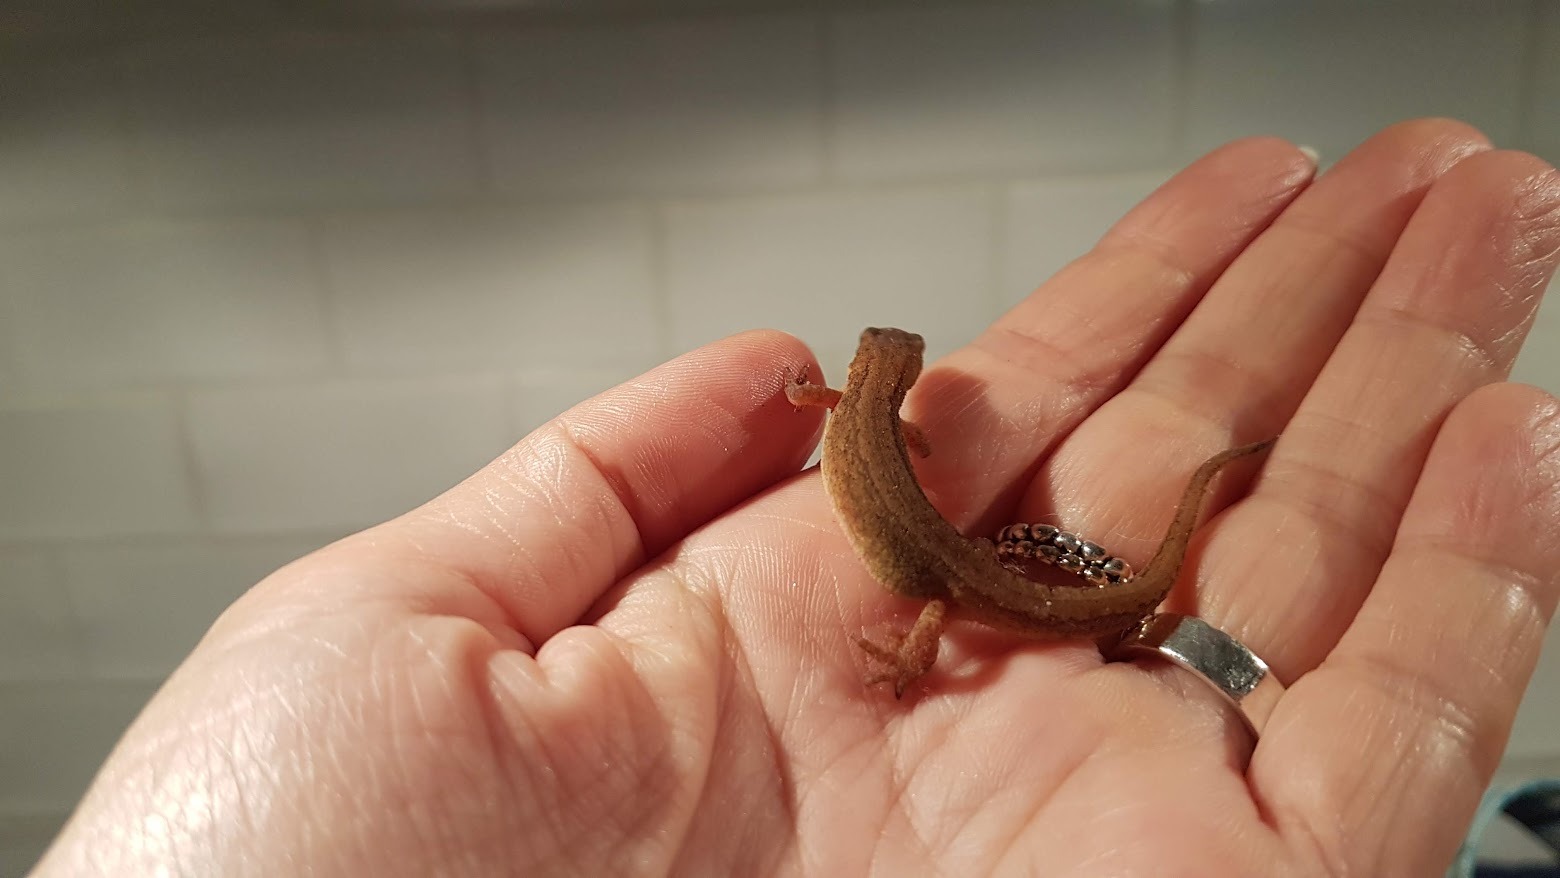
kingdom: Animalia
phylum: Chordata
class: Amphibia
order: Caudata
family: Salamandridae
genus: Lissotriton
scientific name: Lissotriton vulgaris
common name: Lille vandsalamander
